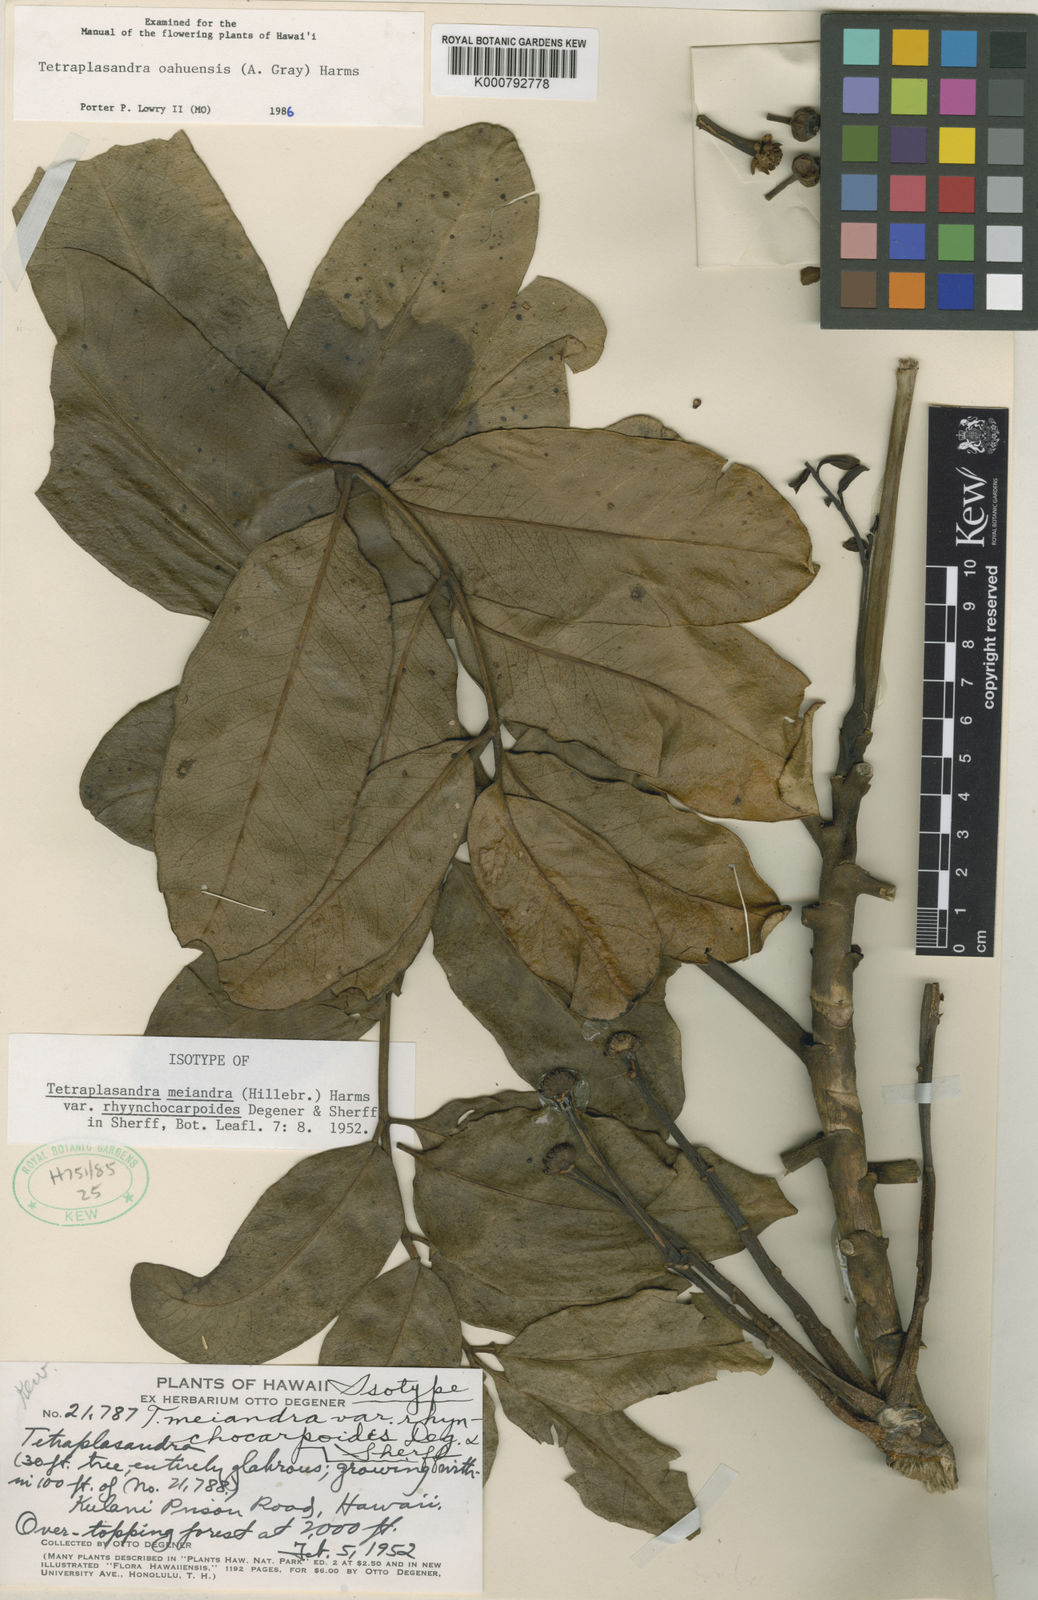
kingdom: Plantae
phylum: Tracheophyta
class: Magnoliopsida
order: Apiales
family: Araliaceae
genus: Polyscias
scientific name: Polyscias oahuensis
